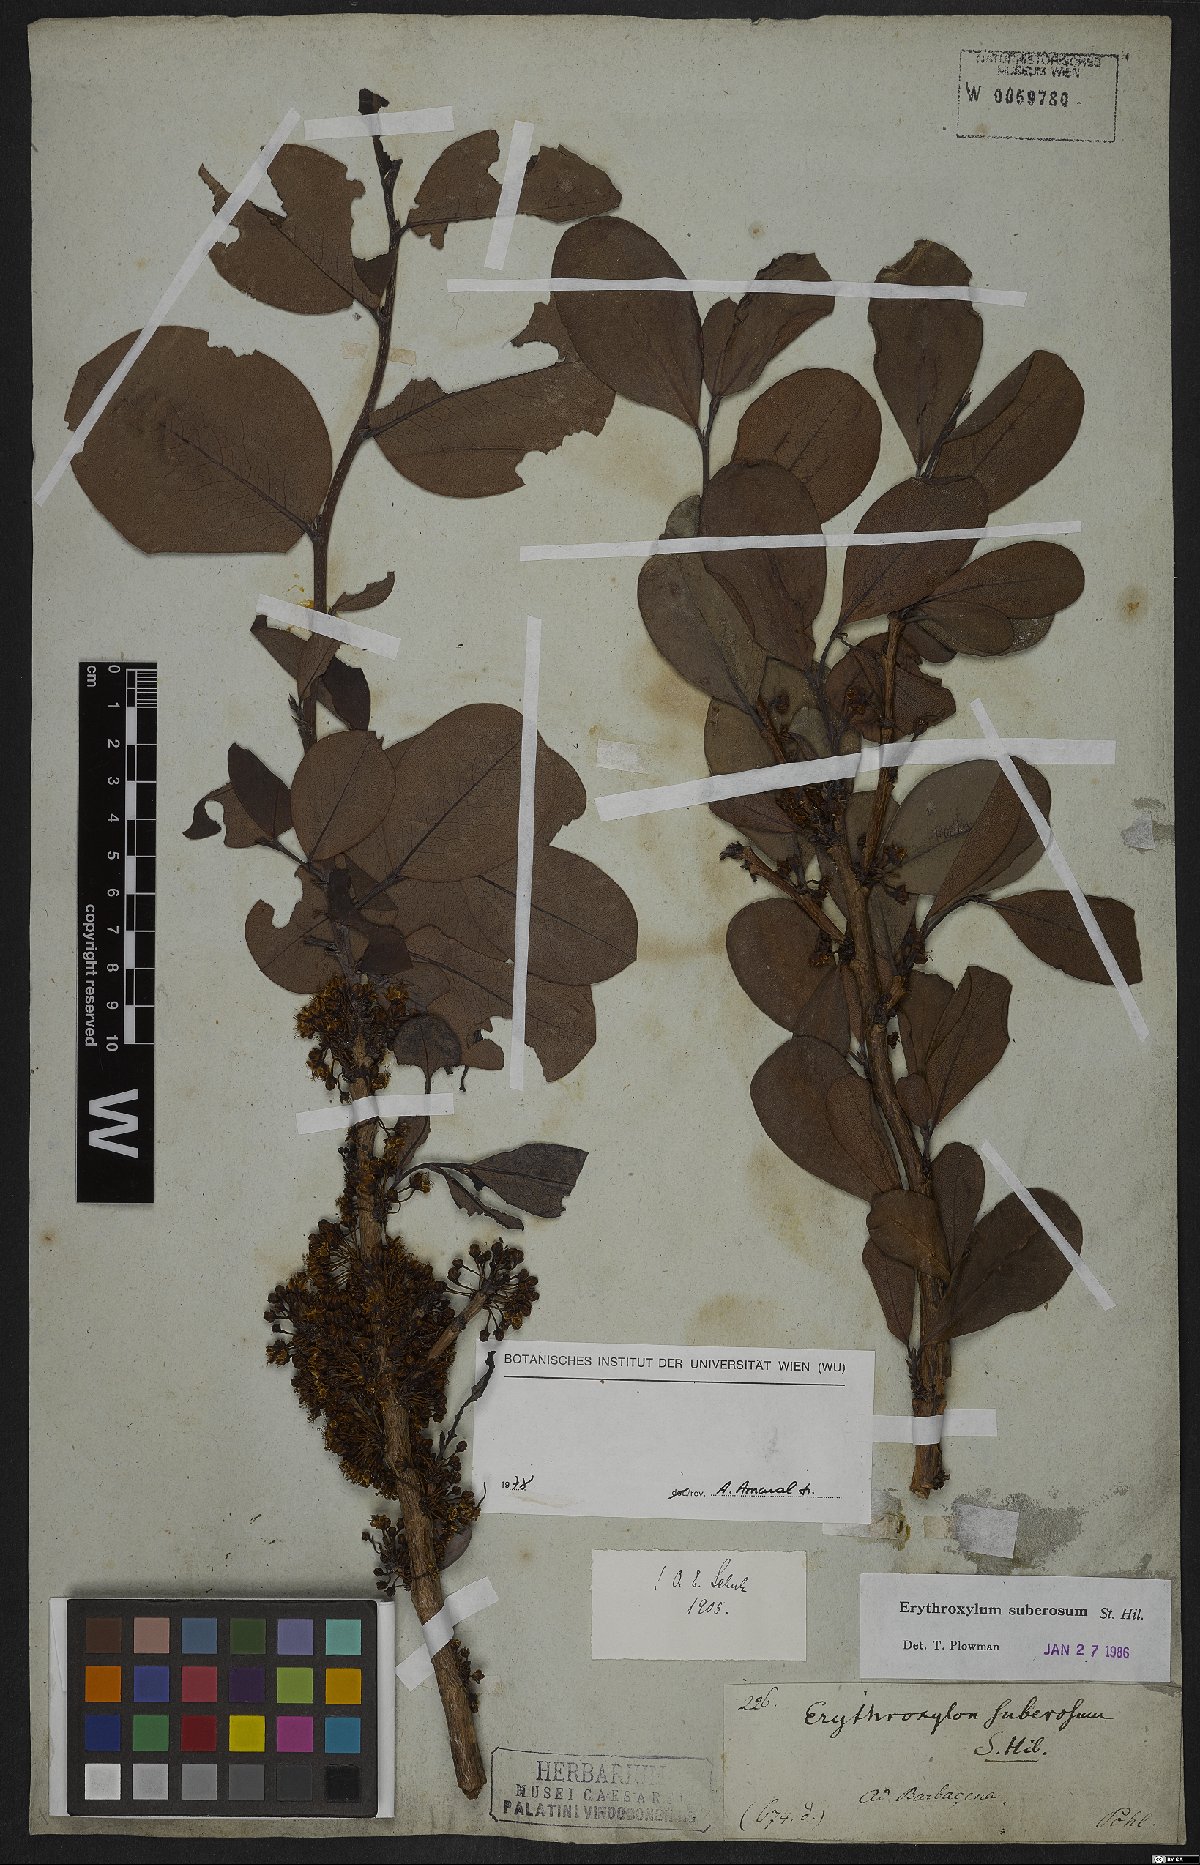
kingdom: Plantae
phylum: Tracheophyta
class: Magnoliopsida
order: Malpighiales
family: Erythroxylaceae
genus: Erythroxylum
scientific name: Erythroxylum suberosum
